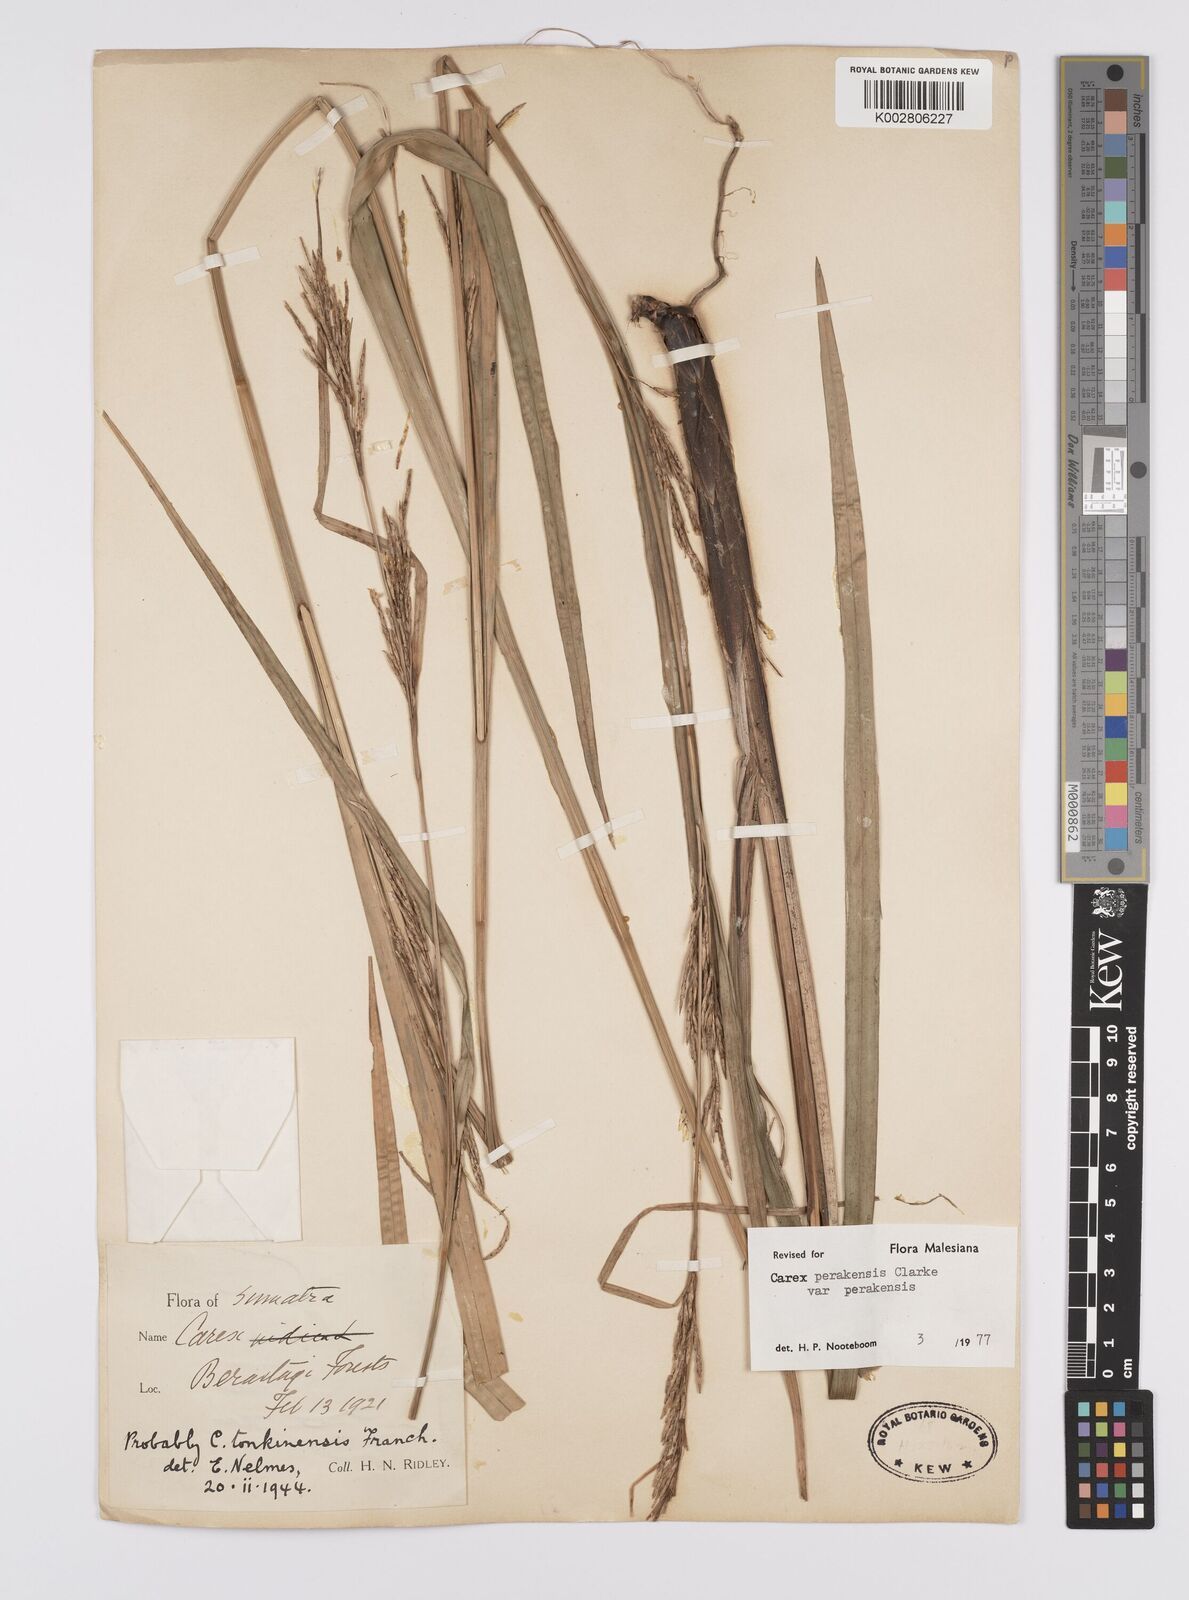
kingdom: Plantae
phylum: Tracheophyta
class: Liliopsida
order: Poales
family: Cyperaceae
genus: Carex
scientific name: Carex perakensis
